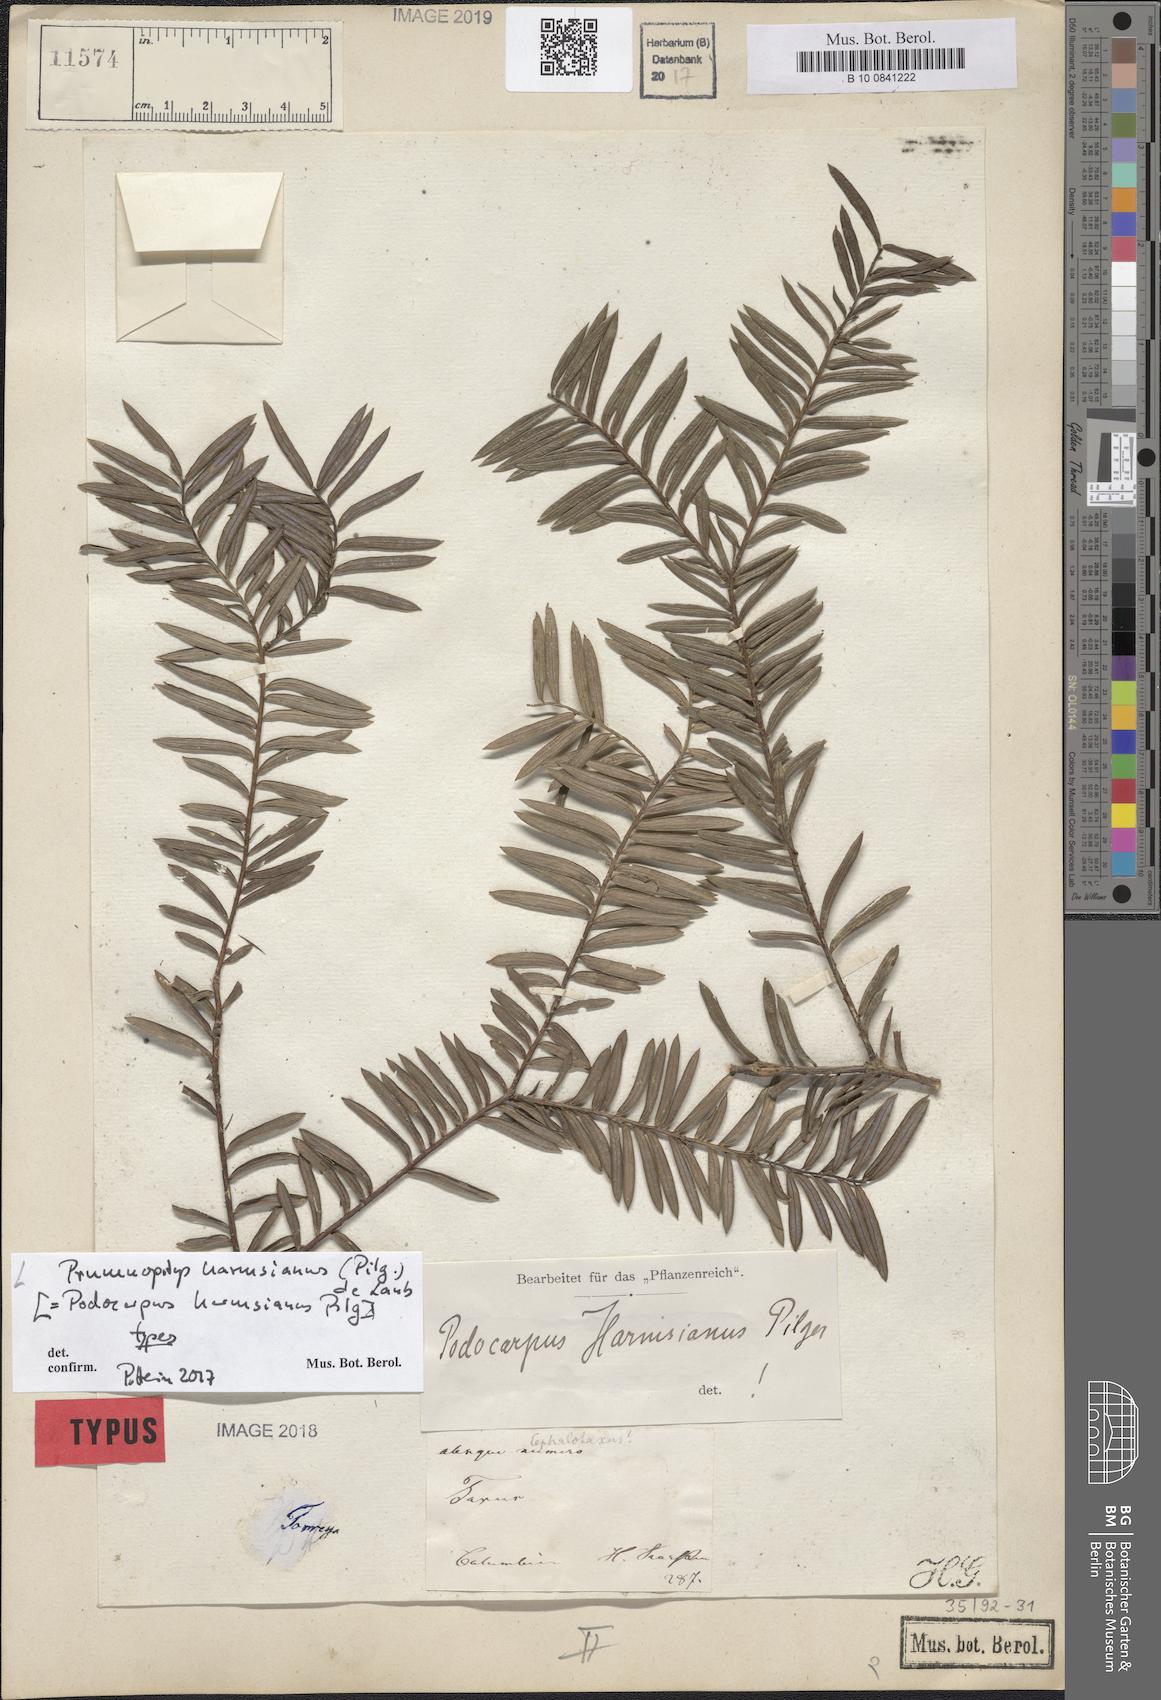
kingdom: Plantae
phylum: Tracheophyta
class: Pinopsida
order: Pinales
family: Podocarpaceae
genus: Prumnopitys
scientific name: Prumnopitys harmsiana
